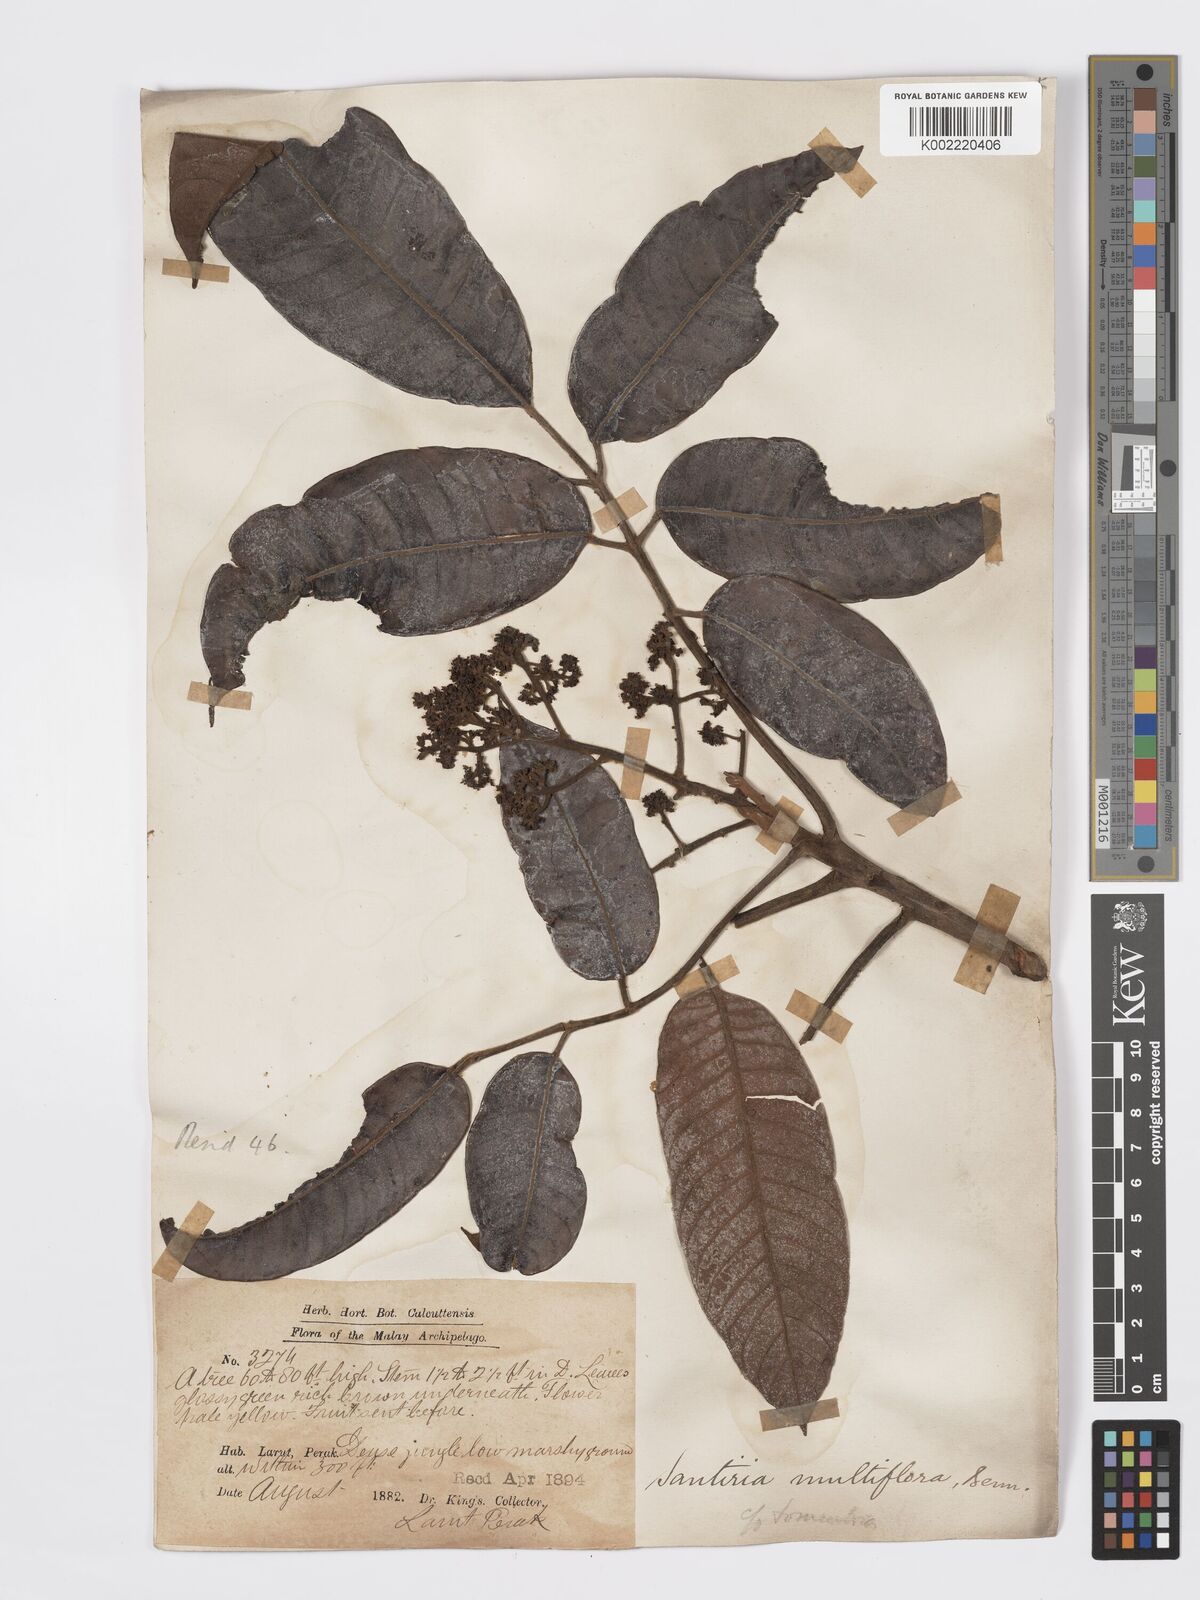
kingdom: Plantae
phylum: Tracheophyta
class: Magnoliopsida
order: Sapindales
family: Burseraceae
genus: Santiria
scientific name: Santiria tomentosa
